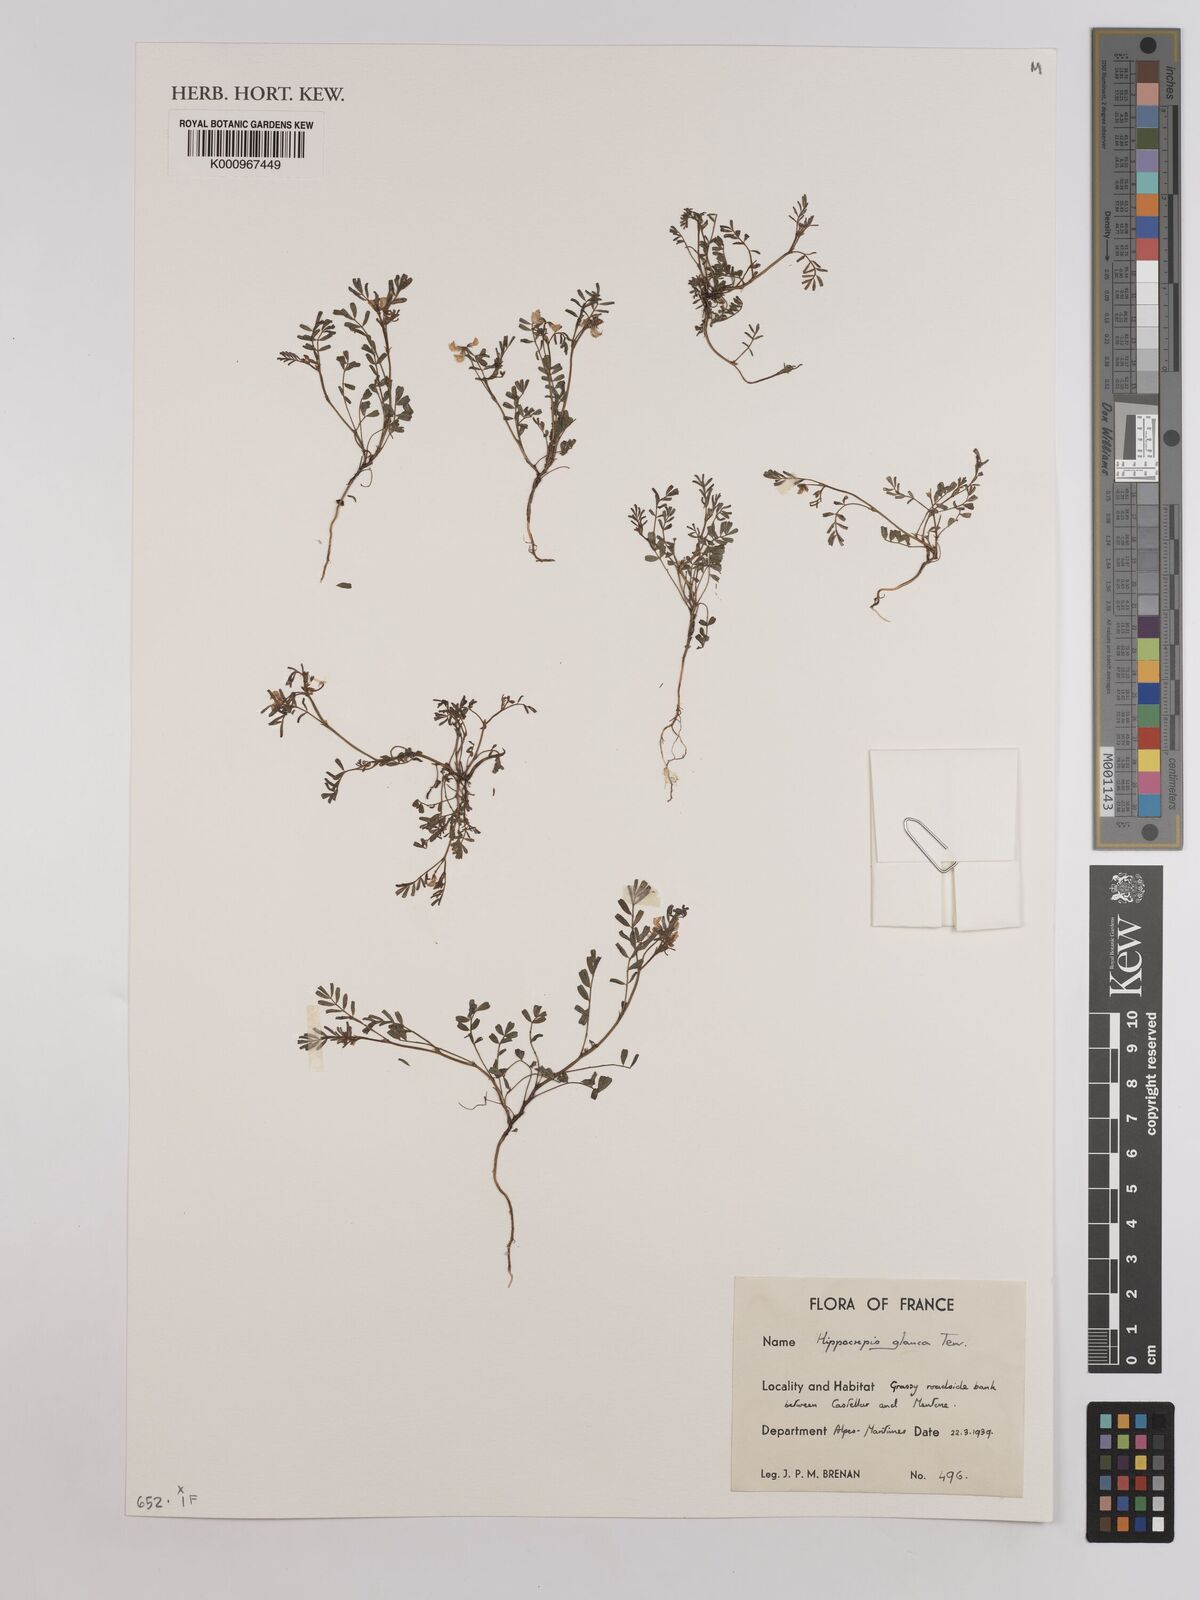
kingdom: Plantae
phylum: Tracheophyta
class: Magnoliopsida
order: Fabales
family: Fabaceae
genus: Hippocrepis
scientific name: Hippocrepis glauca
